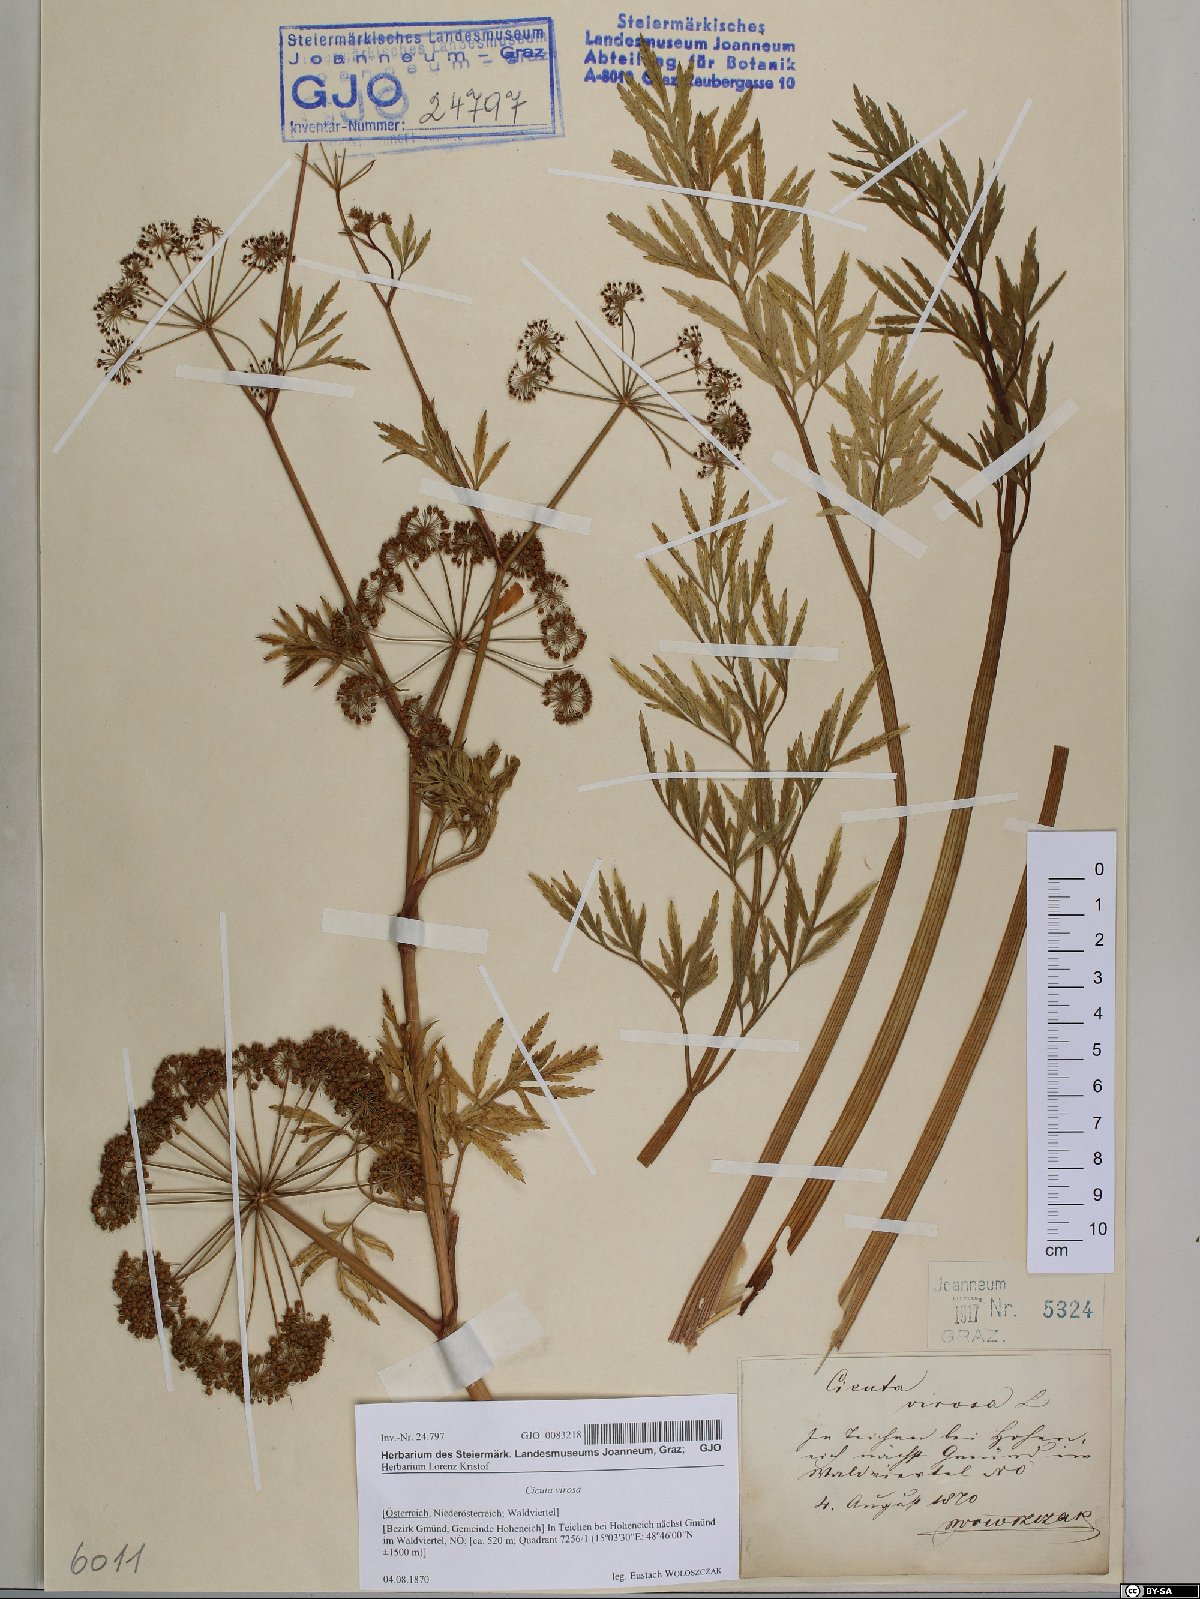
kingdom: Plantae
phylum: Tracheophyta
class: Magnoliopsida
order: Apiales
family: Apiaceae
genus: Cicuta
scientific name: Cicuta virosa
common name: Cowbane
